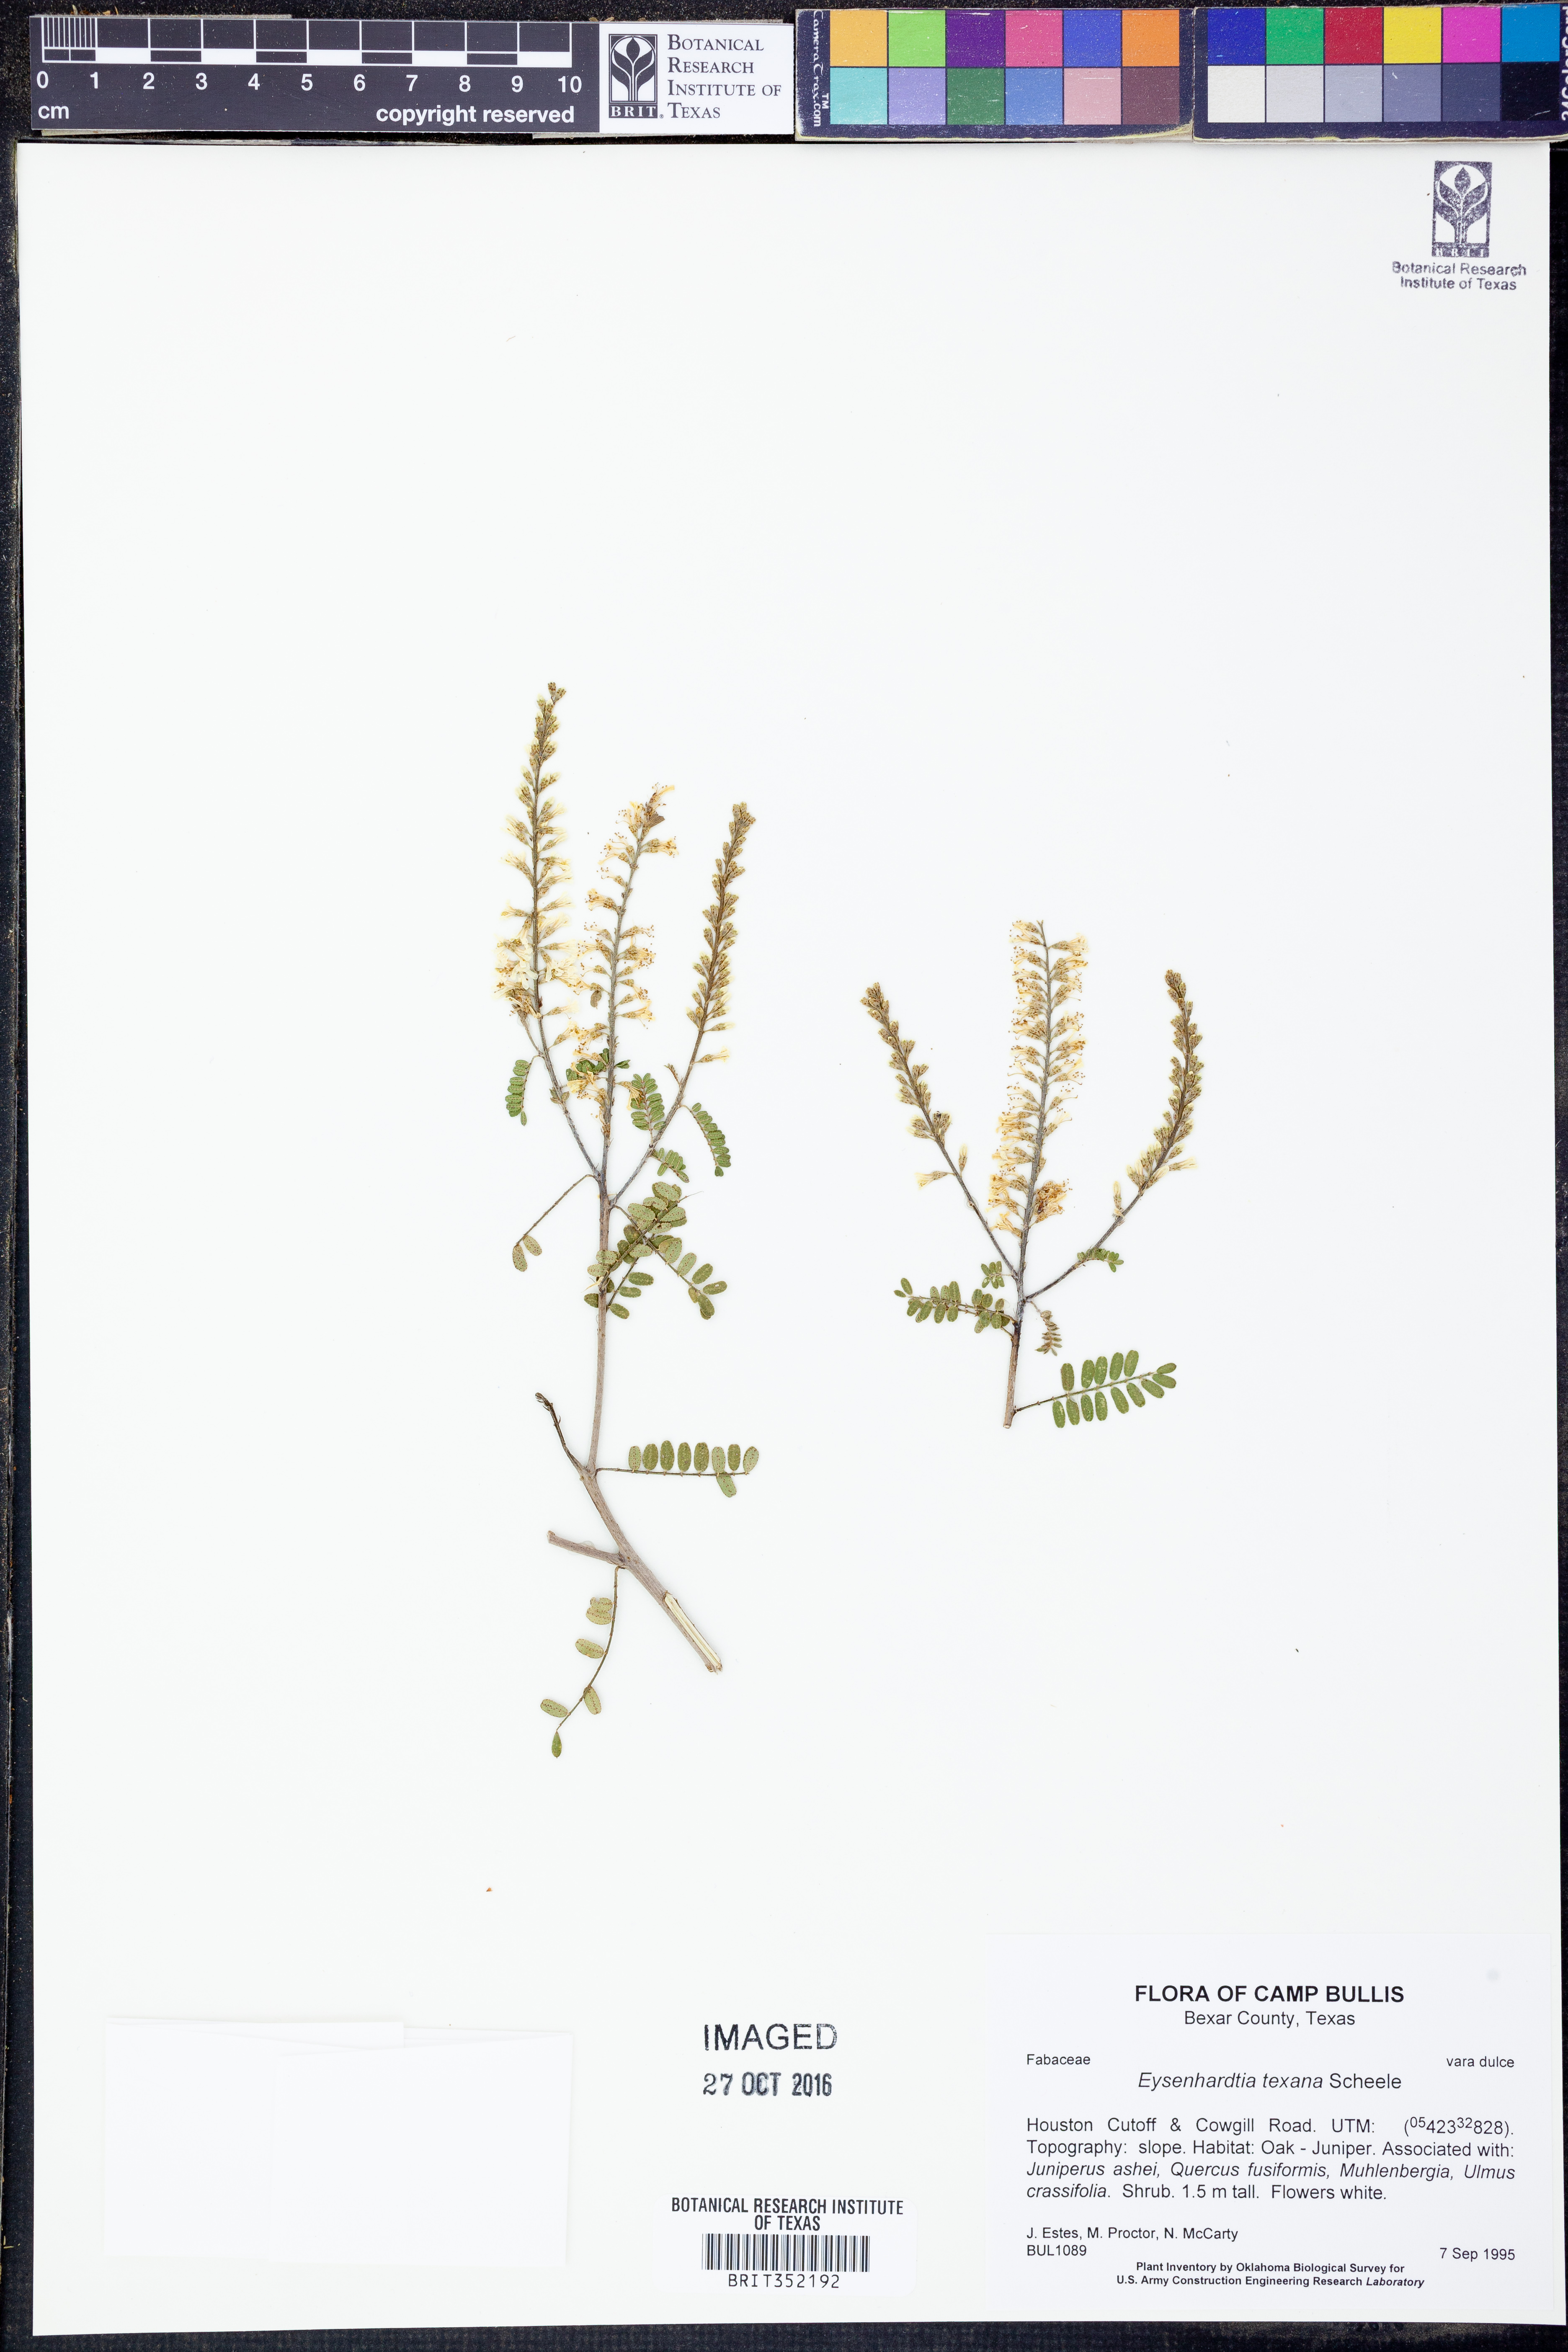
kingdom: Plantae
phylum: Tracheophyta
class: Magnoliopsida
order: Fabales
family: Fabaceae
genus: Eysenhardtia
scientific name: Eysenhardtia texana
